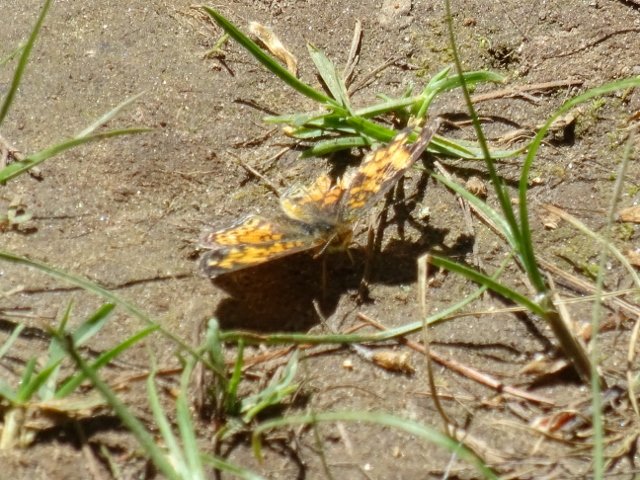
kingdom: Animalia
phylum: Arthropoda
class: Insecta
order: Lepidoptera
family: Nymphalidae
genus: Phyciodes
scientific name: Phyciodes
